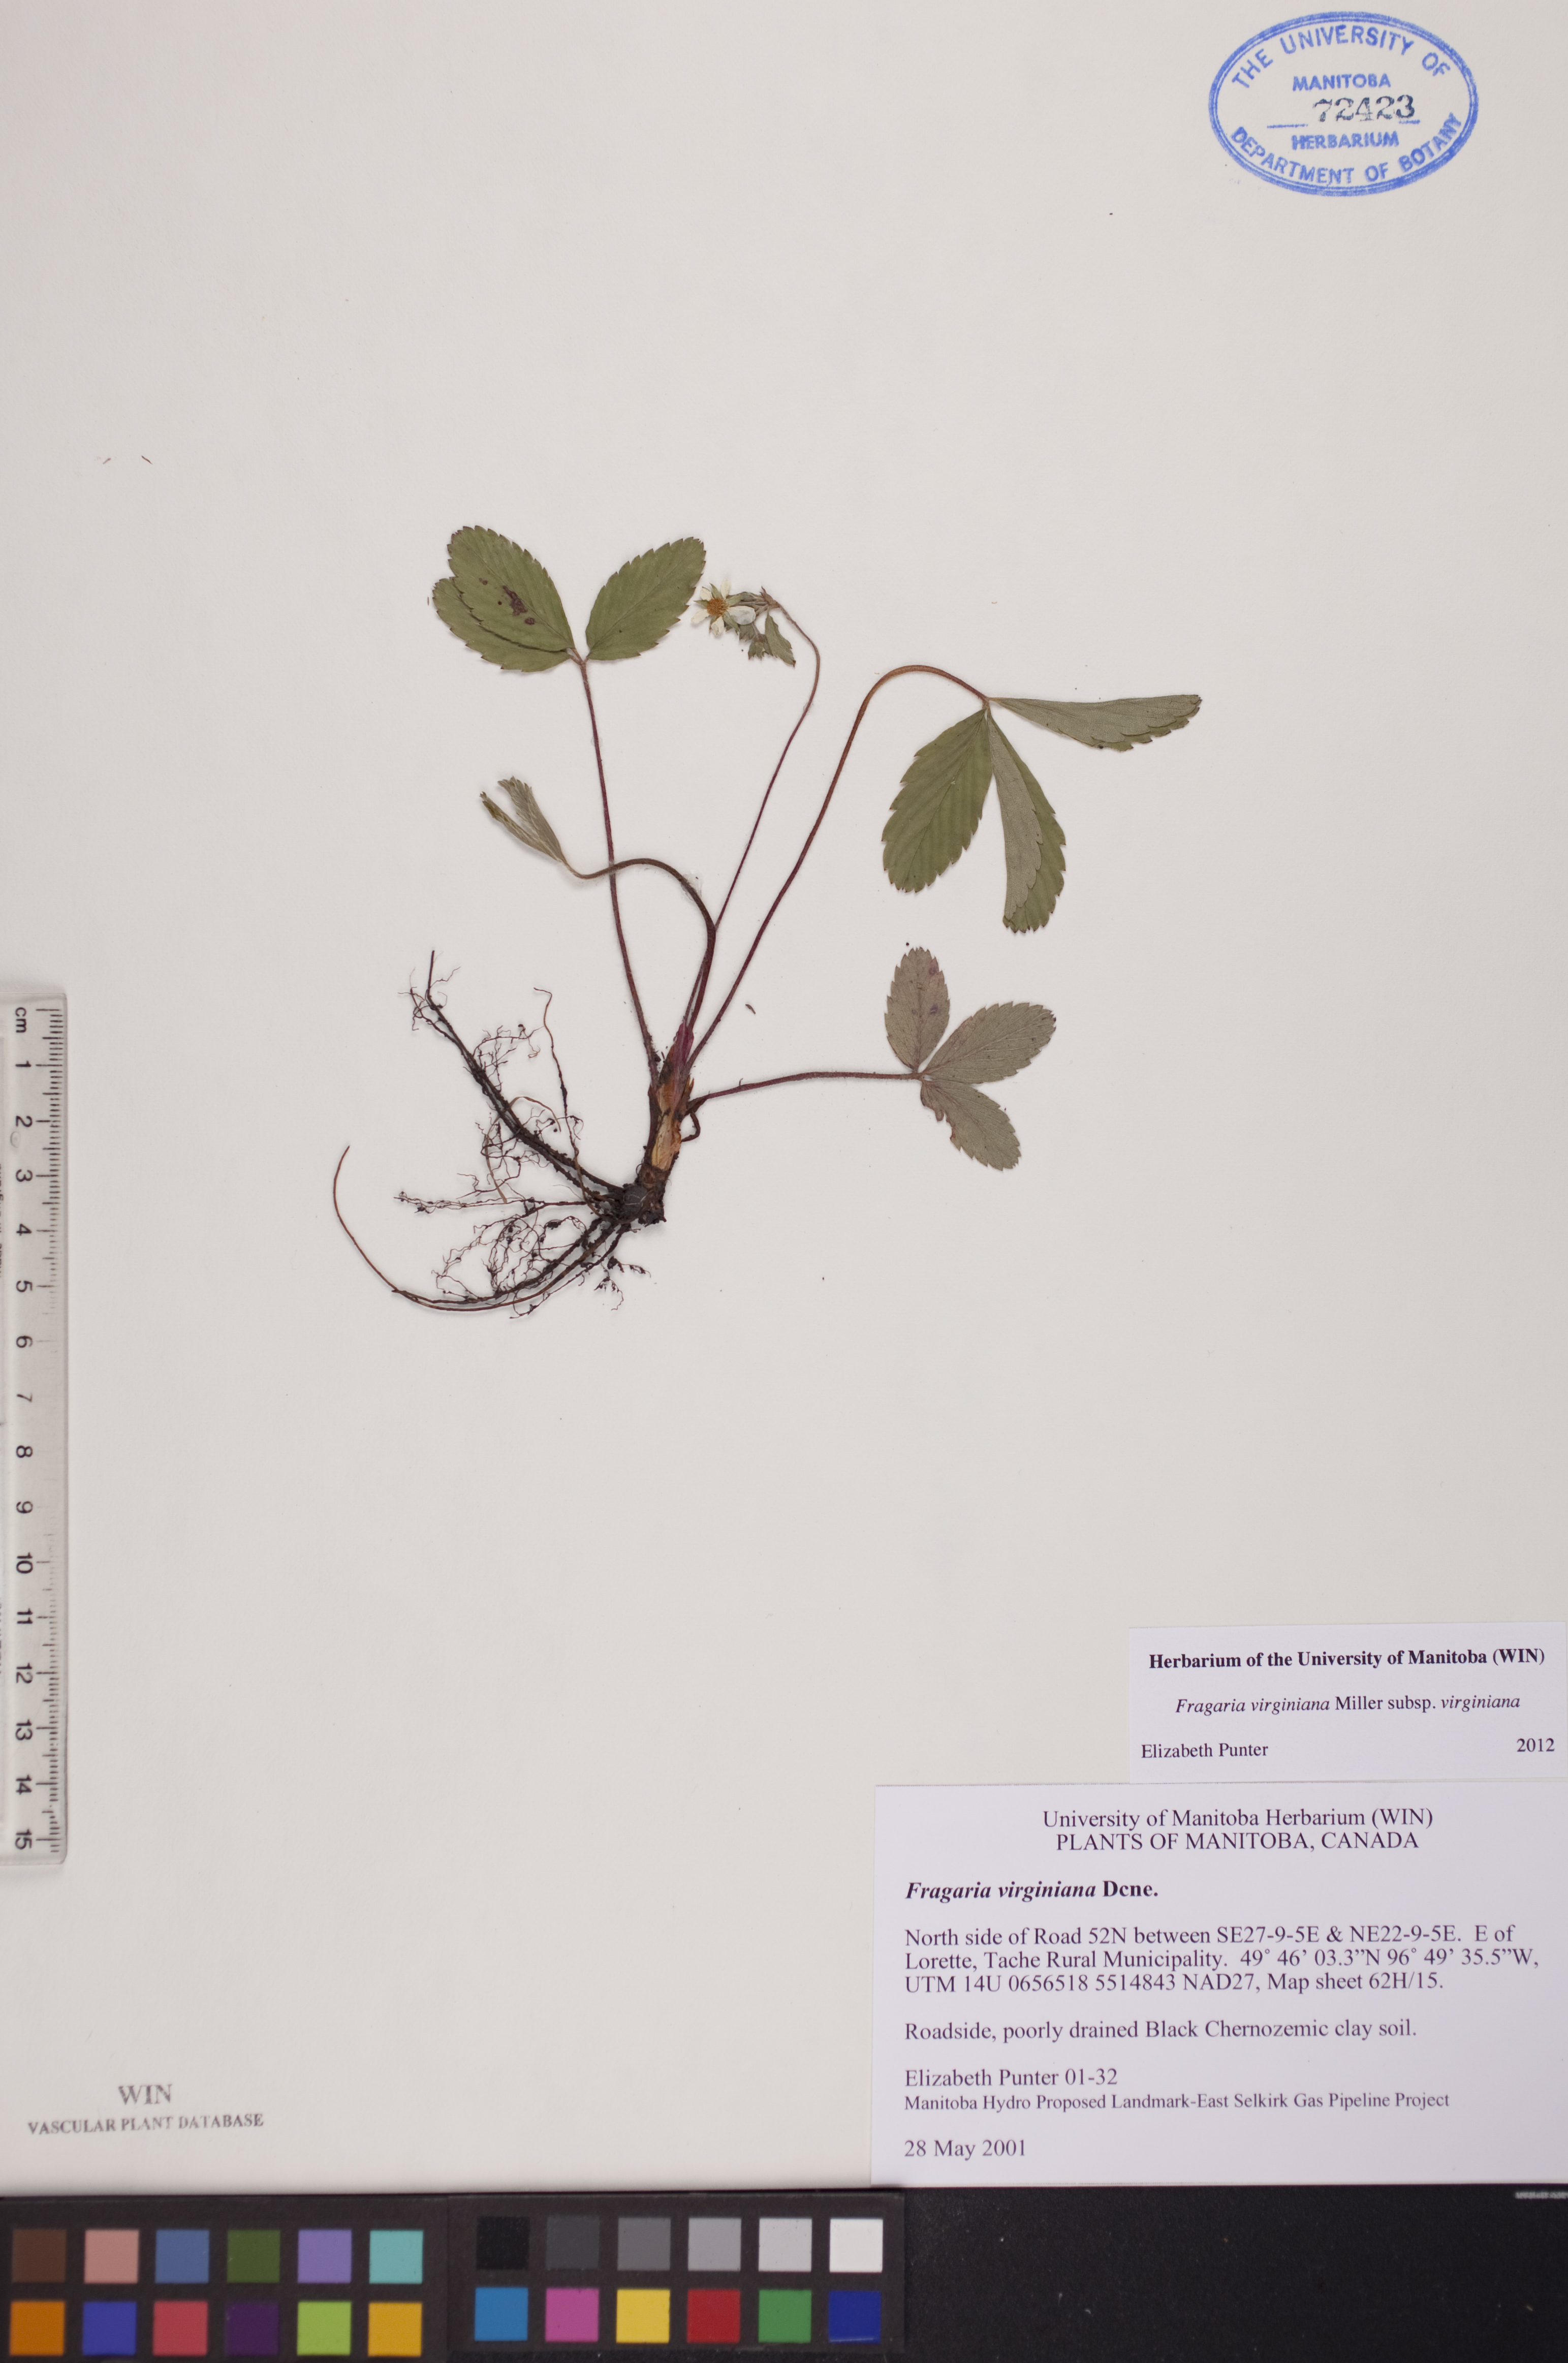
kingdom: Plantae
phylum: Tracheophyta
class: Magnoliopsida
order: Rosales
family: Rosaceae
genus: Fragaria
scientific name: Fragaria virginiana
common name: Thickleaved wild strawberry
